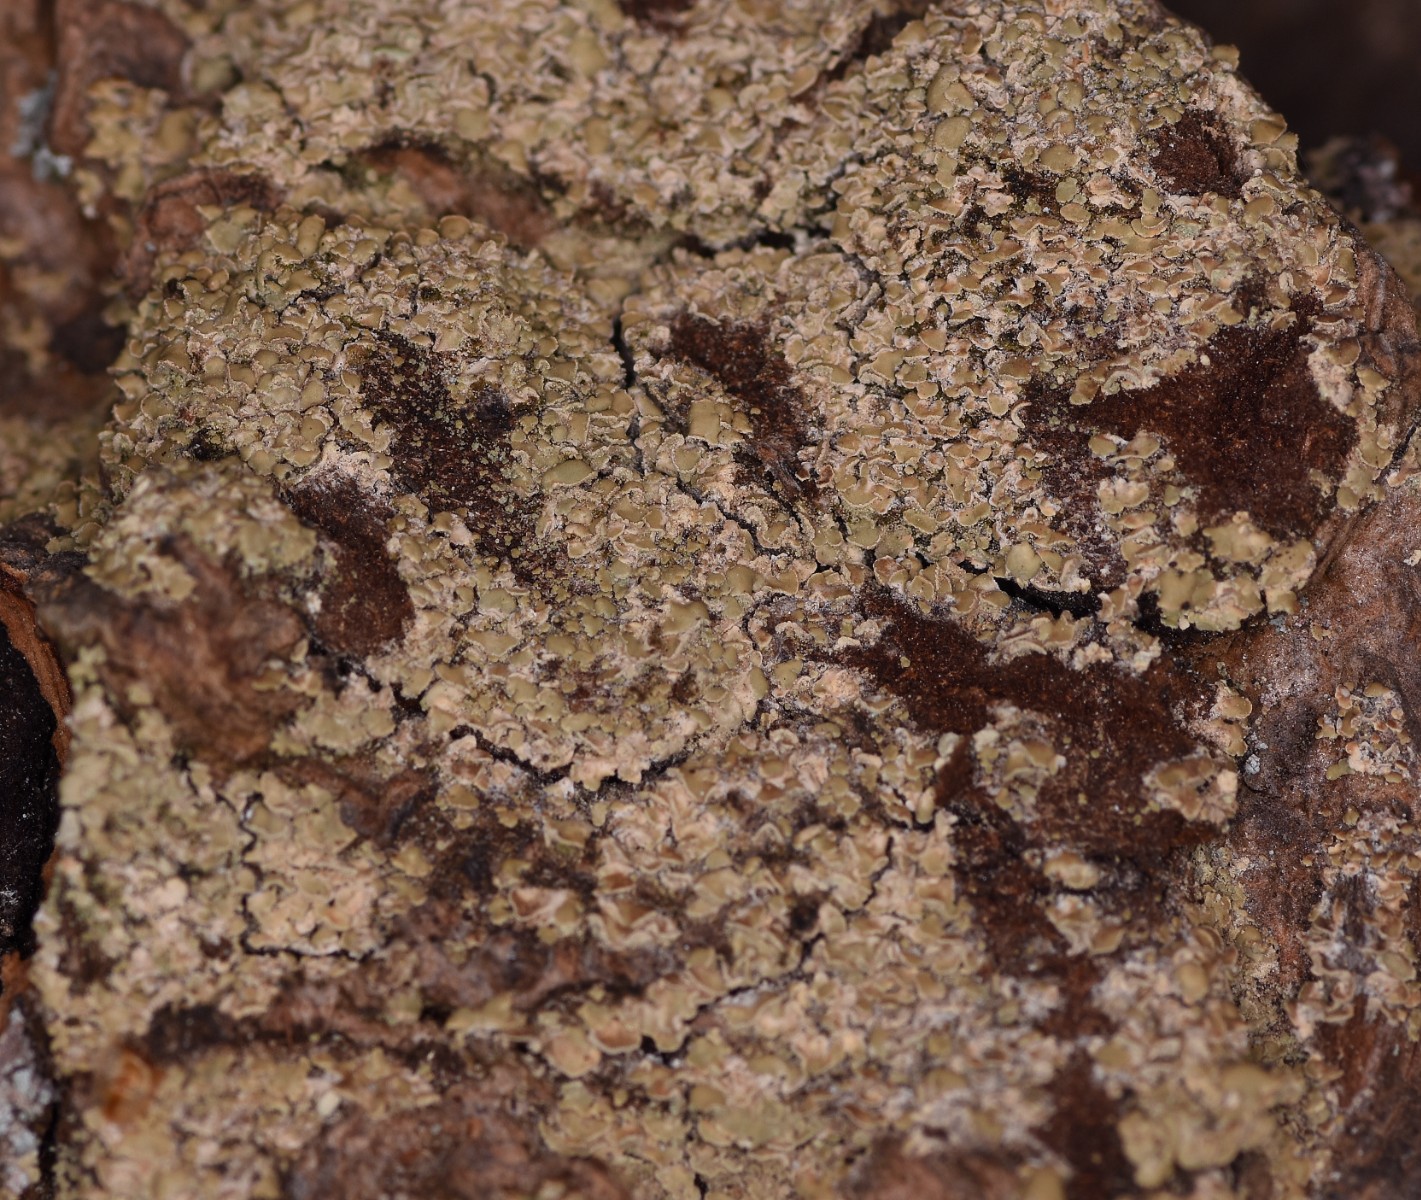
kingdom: Fungi
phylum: Ascomycota
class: Lecanoromycetes
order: Umbilicariales
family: Ophioparmaceae
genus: Hypocenomyce
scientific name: Hypocenomyce scalaris
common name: småskællet muslinglav
